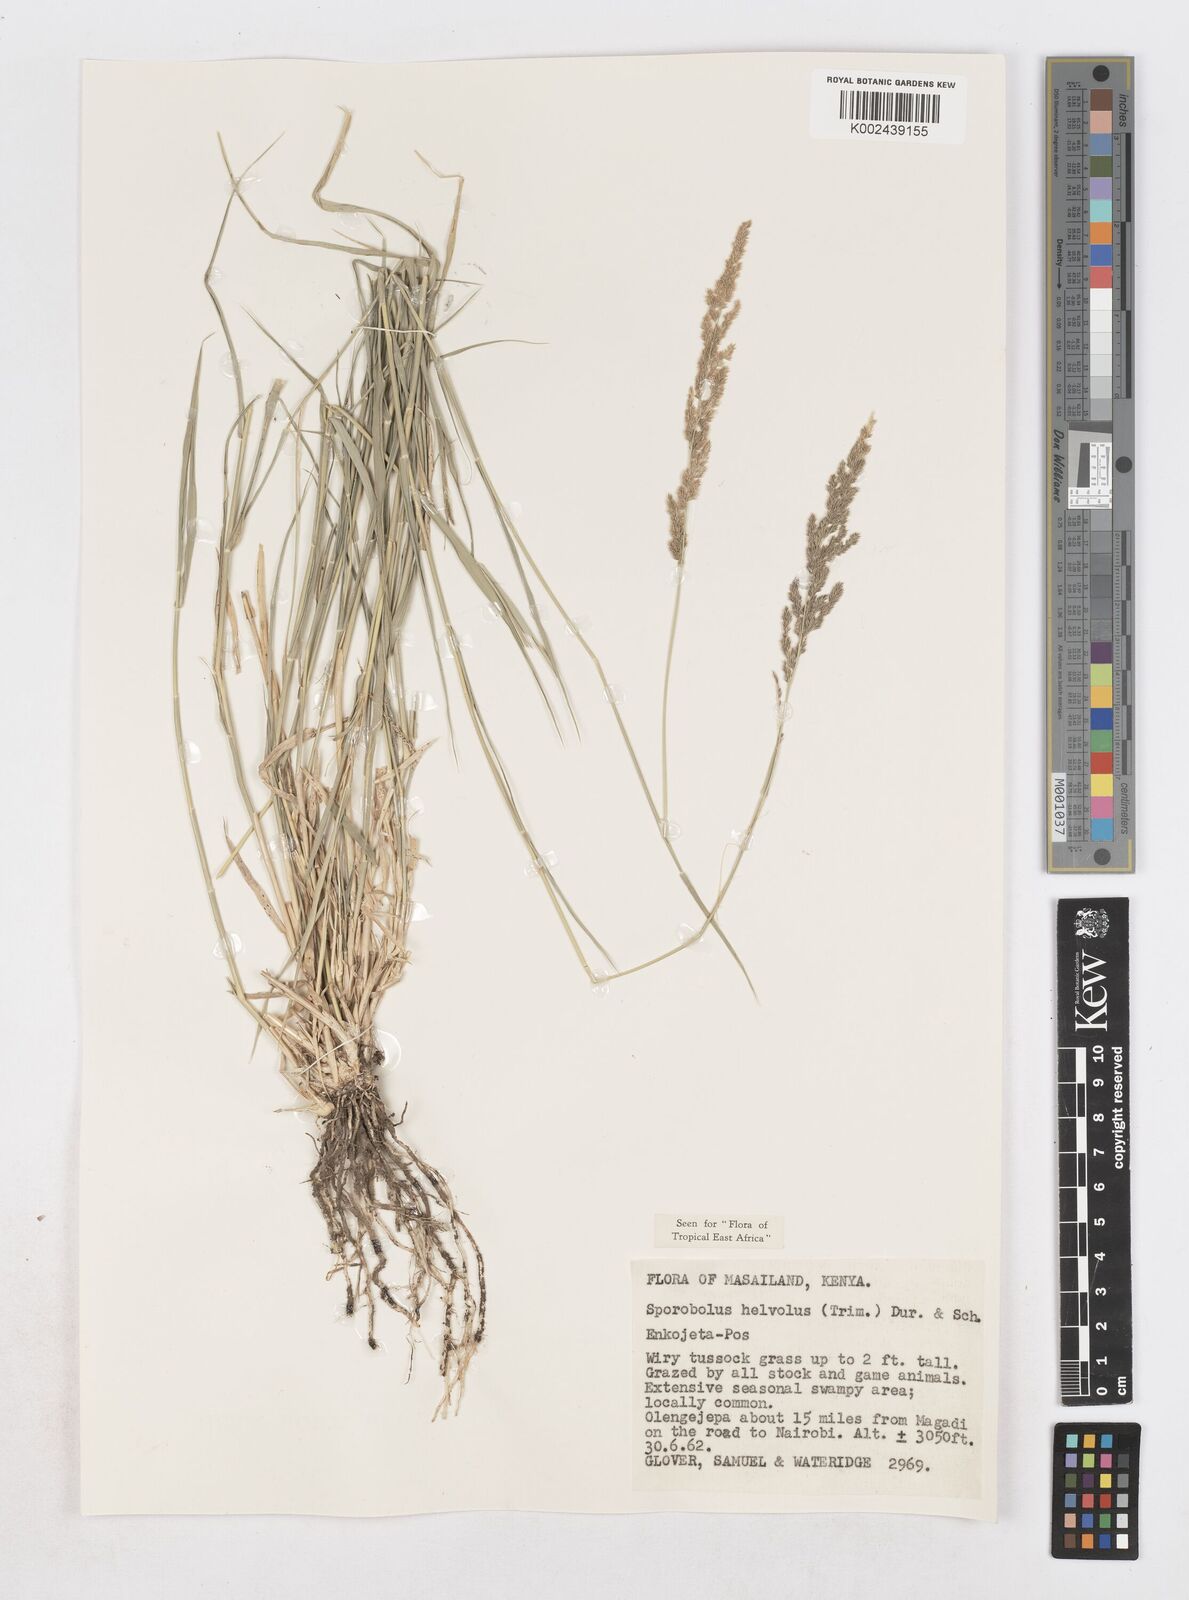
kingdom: Plantae
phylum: Tracheophyta
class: Liliopsida
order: Poales
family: Poaceae
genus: Sporobolus
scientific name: Sporobolus helvolus
